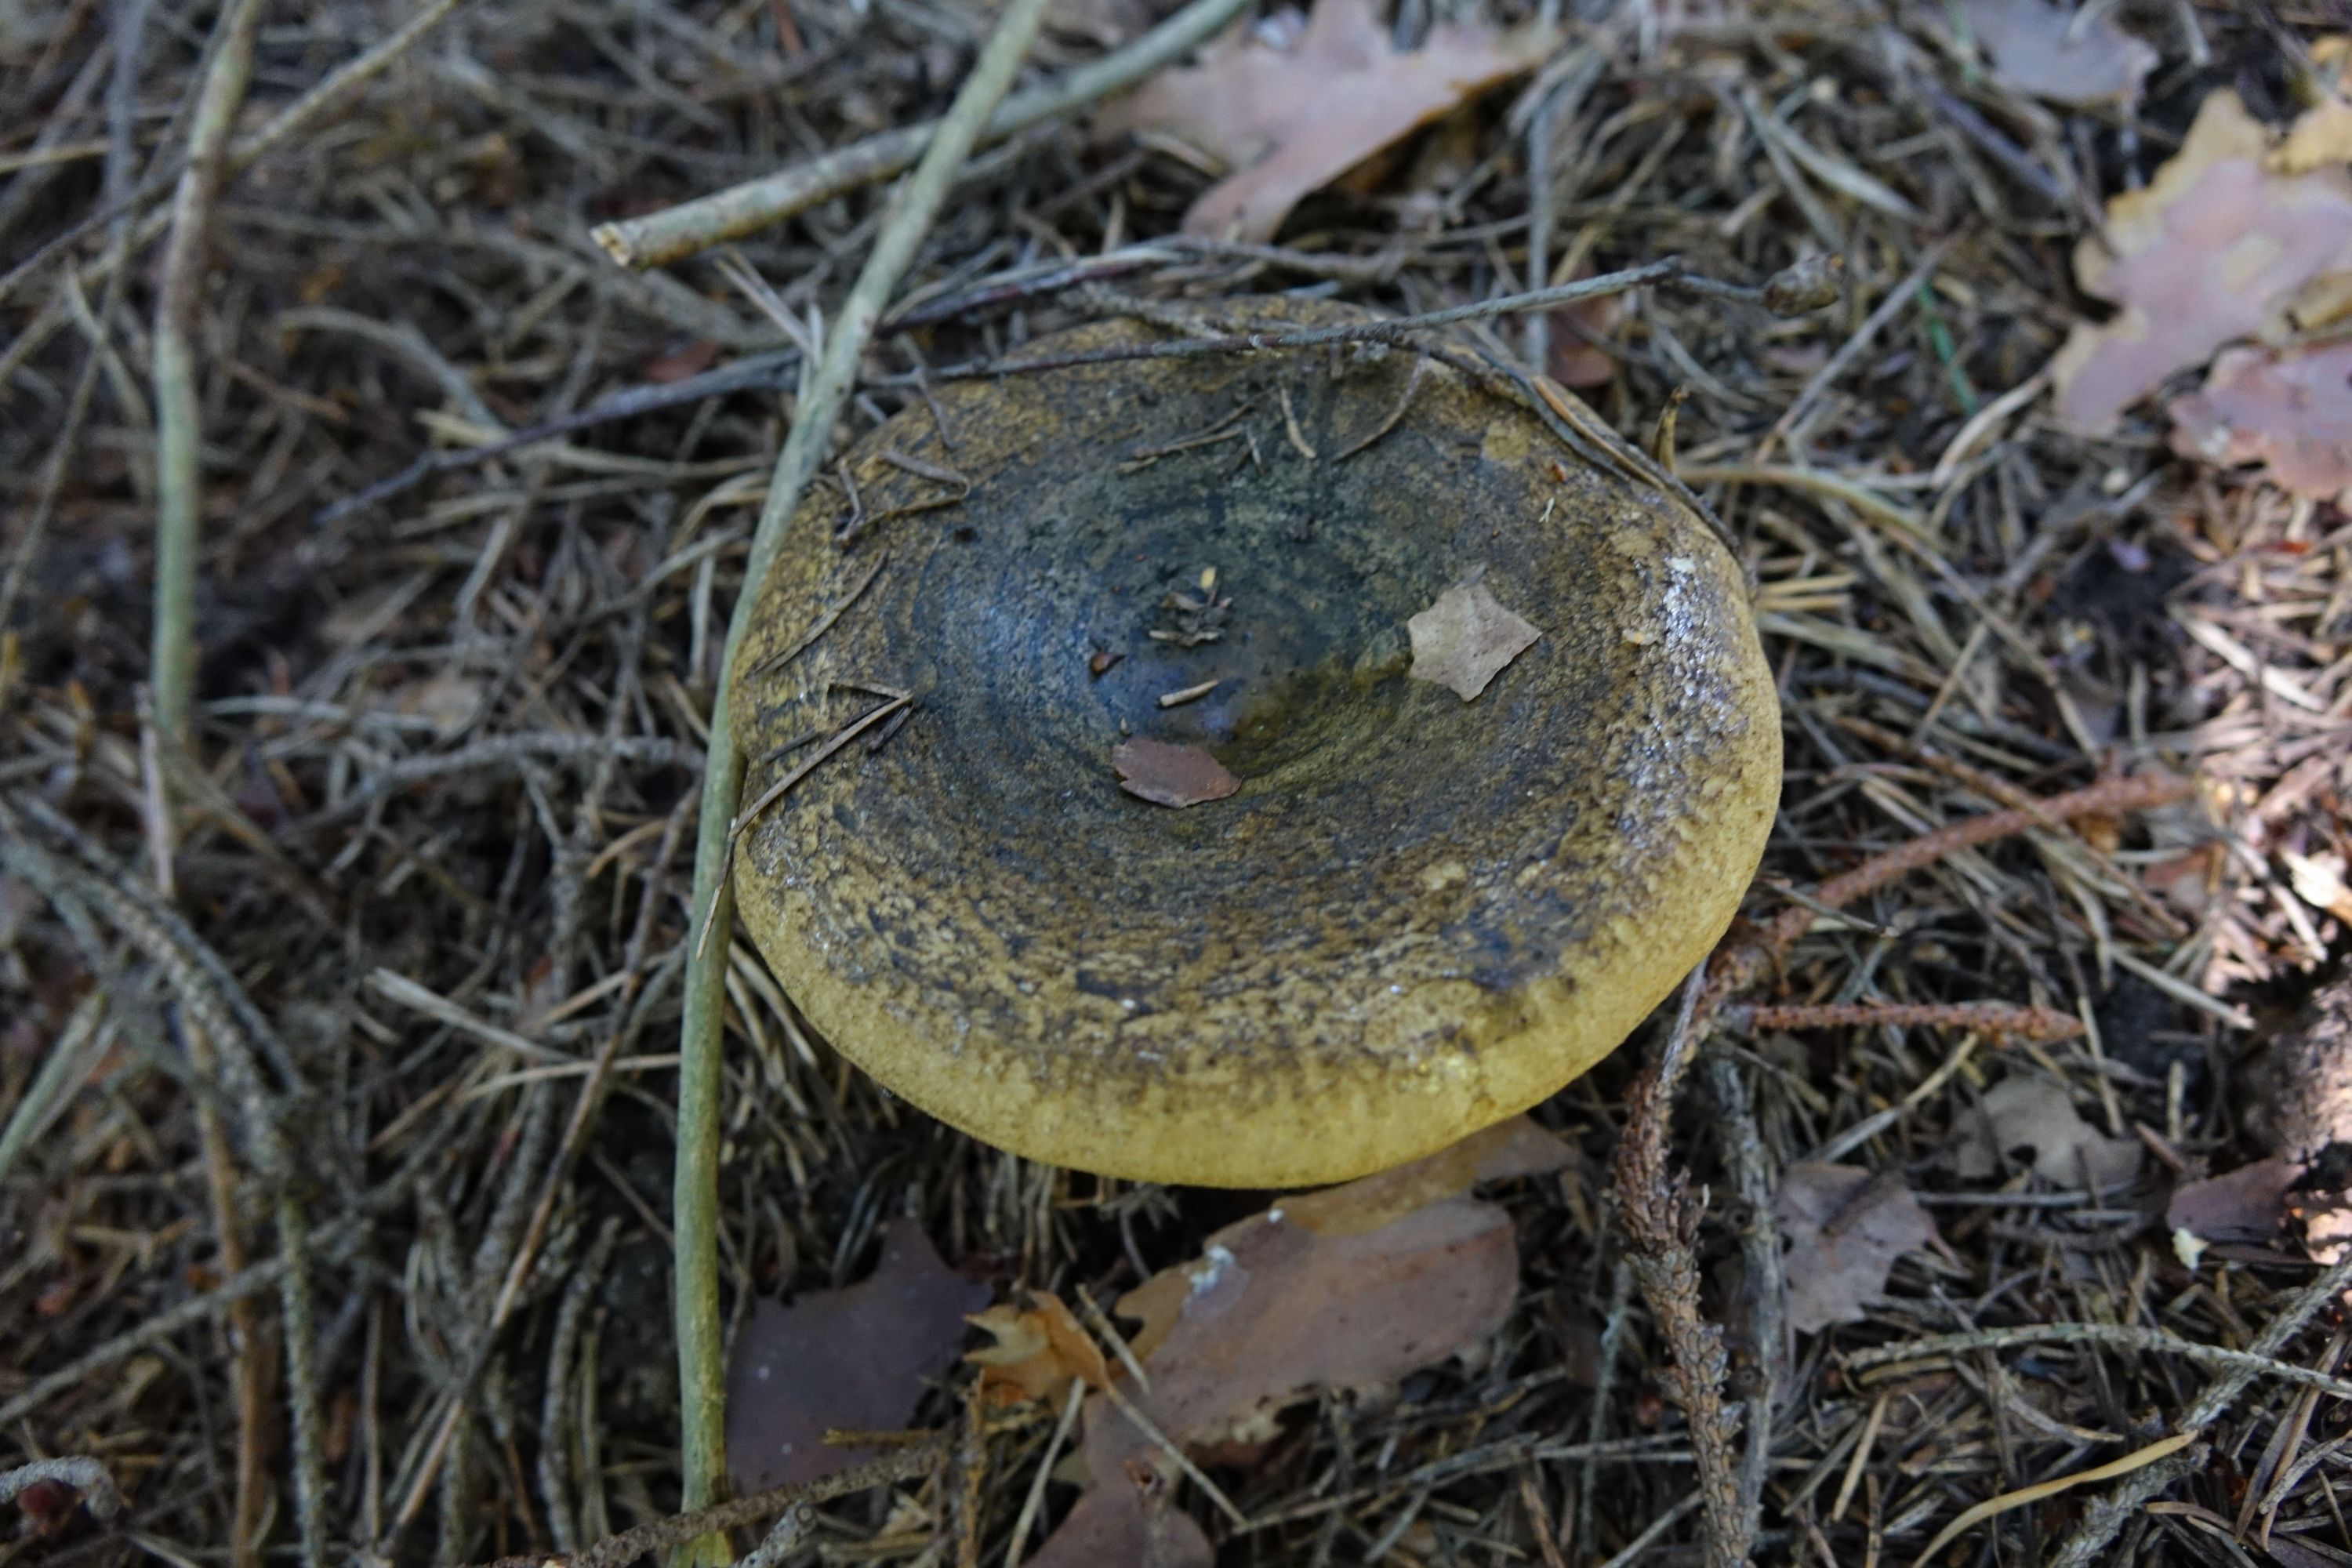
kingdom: Fungi
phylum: Basidiomycota
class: Agaricomycetes
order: Russulales
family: Russulaceae
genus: Lactarius
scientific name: Lactarius turpis
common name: Ugly milk-cap
